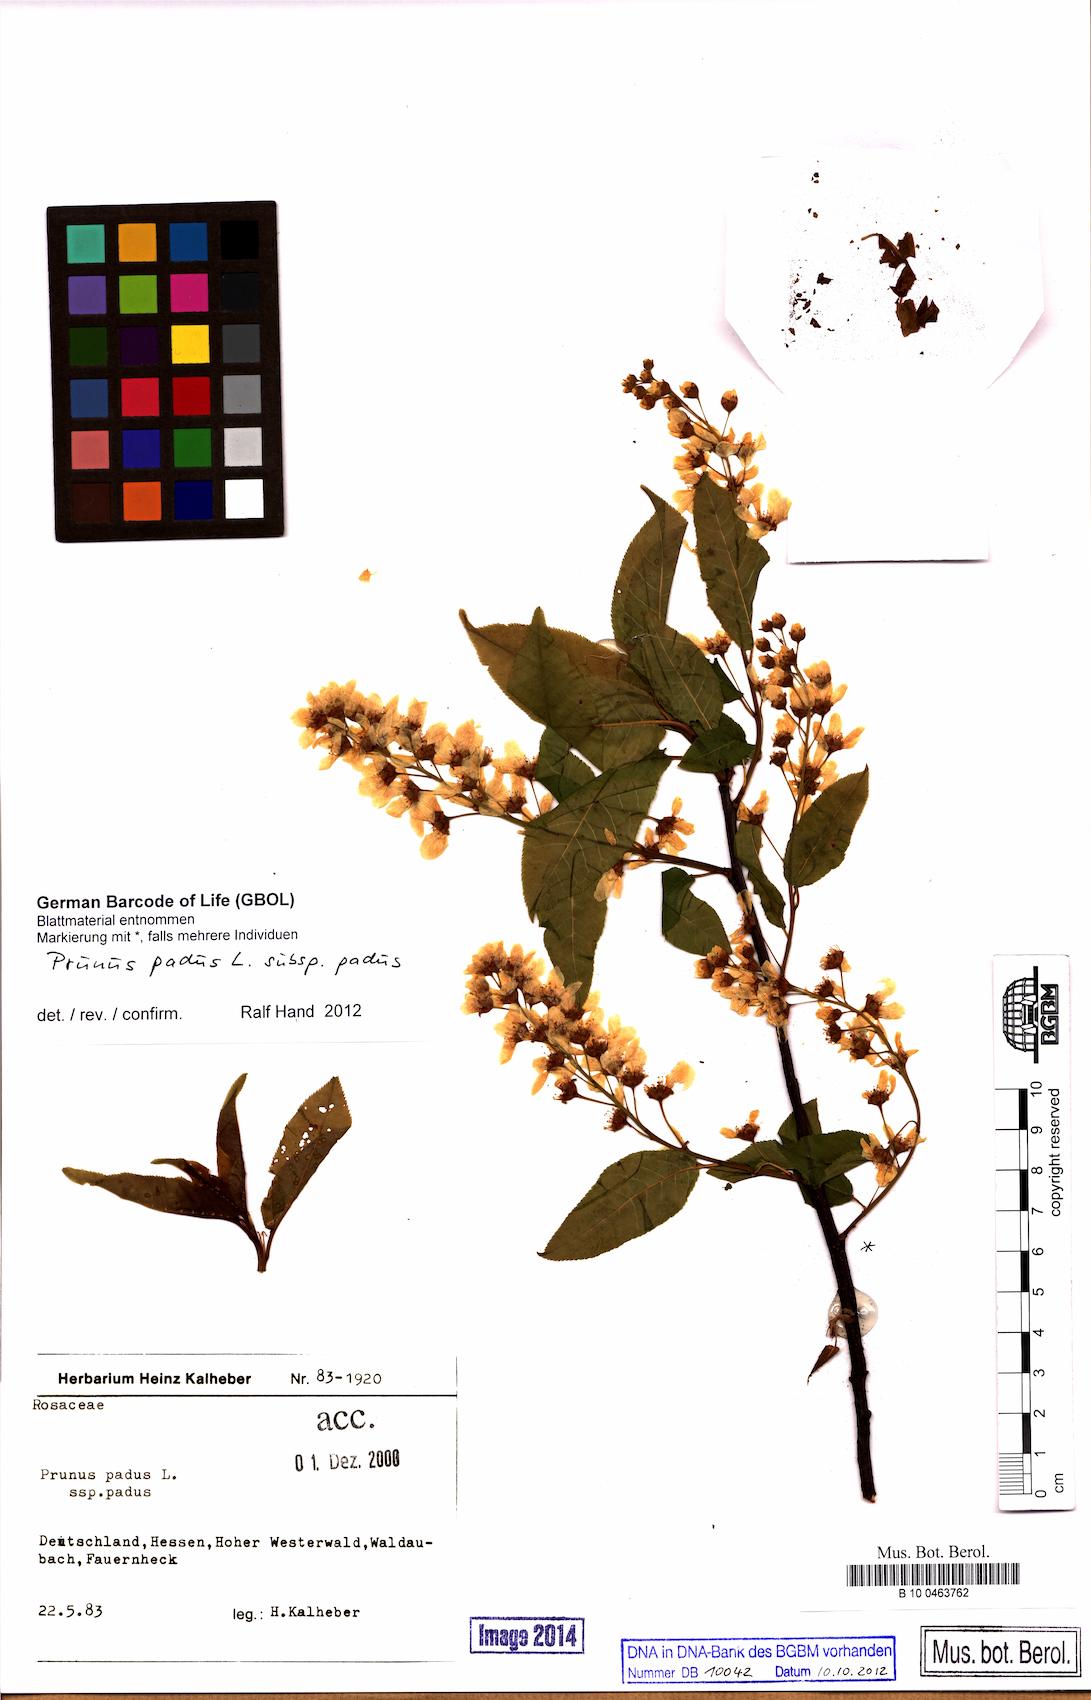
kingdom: Plantae
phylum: Tracheophyta
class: Magnoliopsida
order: Rosales
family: Rosaceae
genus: Prunus
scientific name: Prunus padus
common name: Bird cherry
